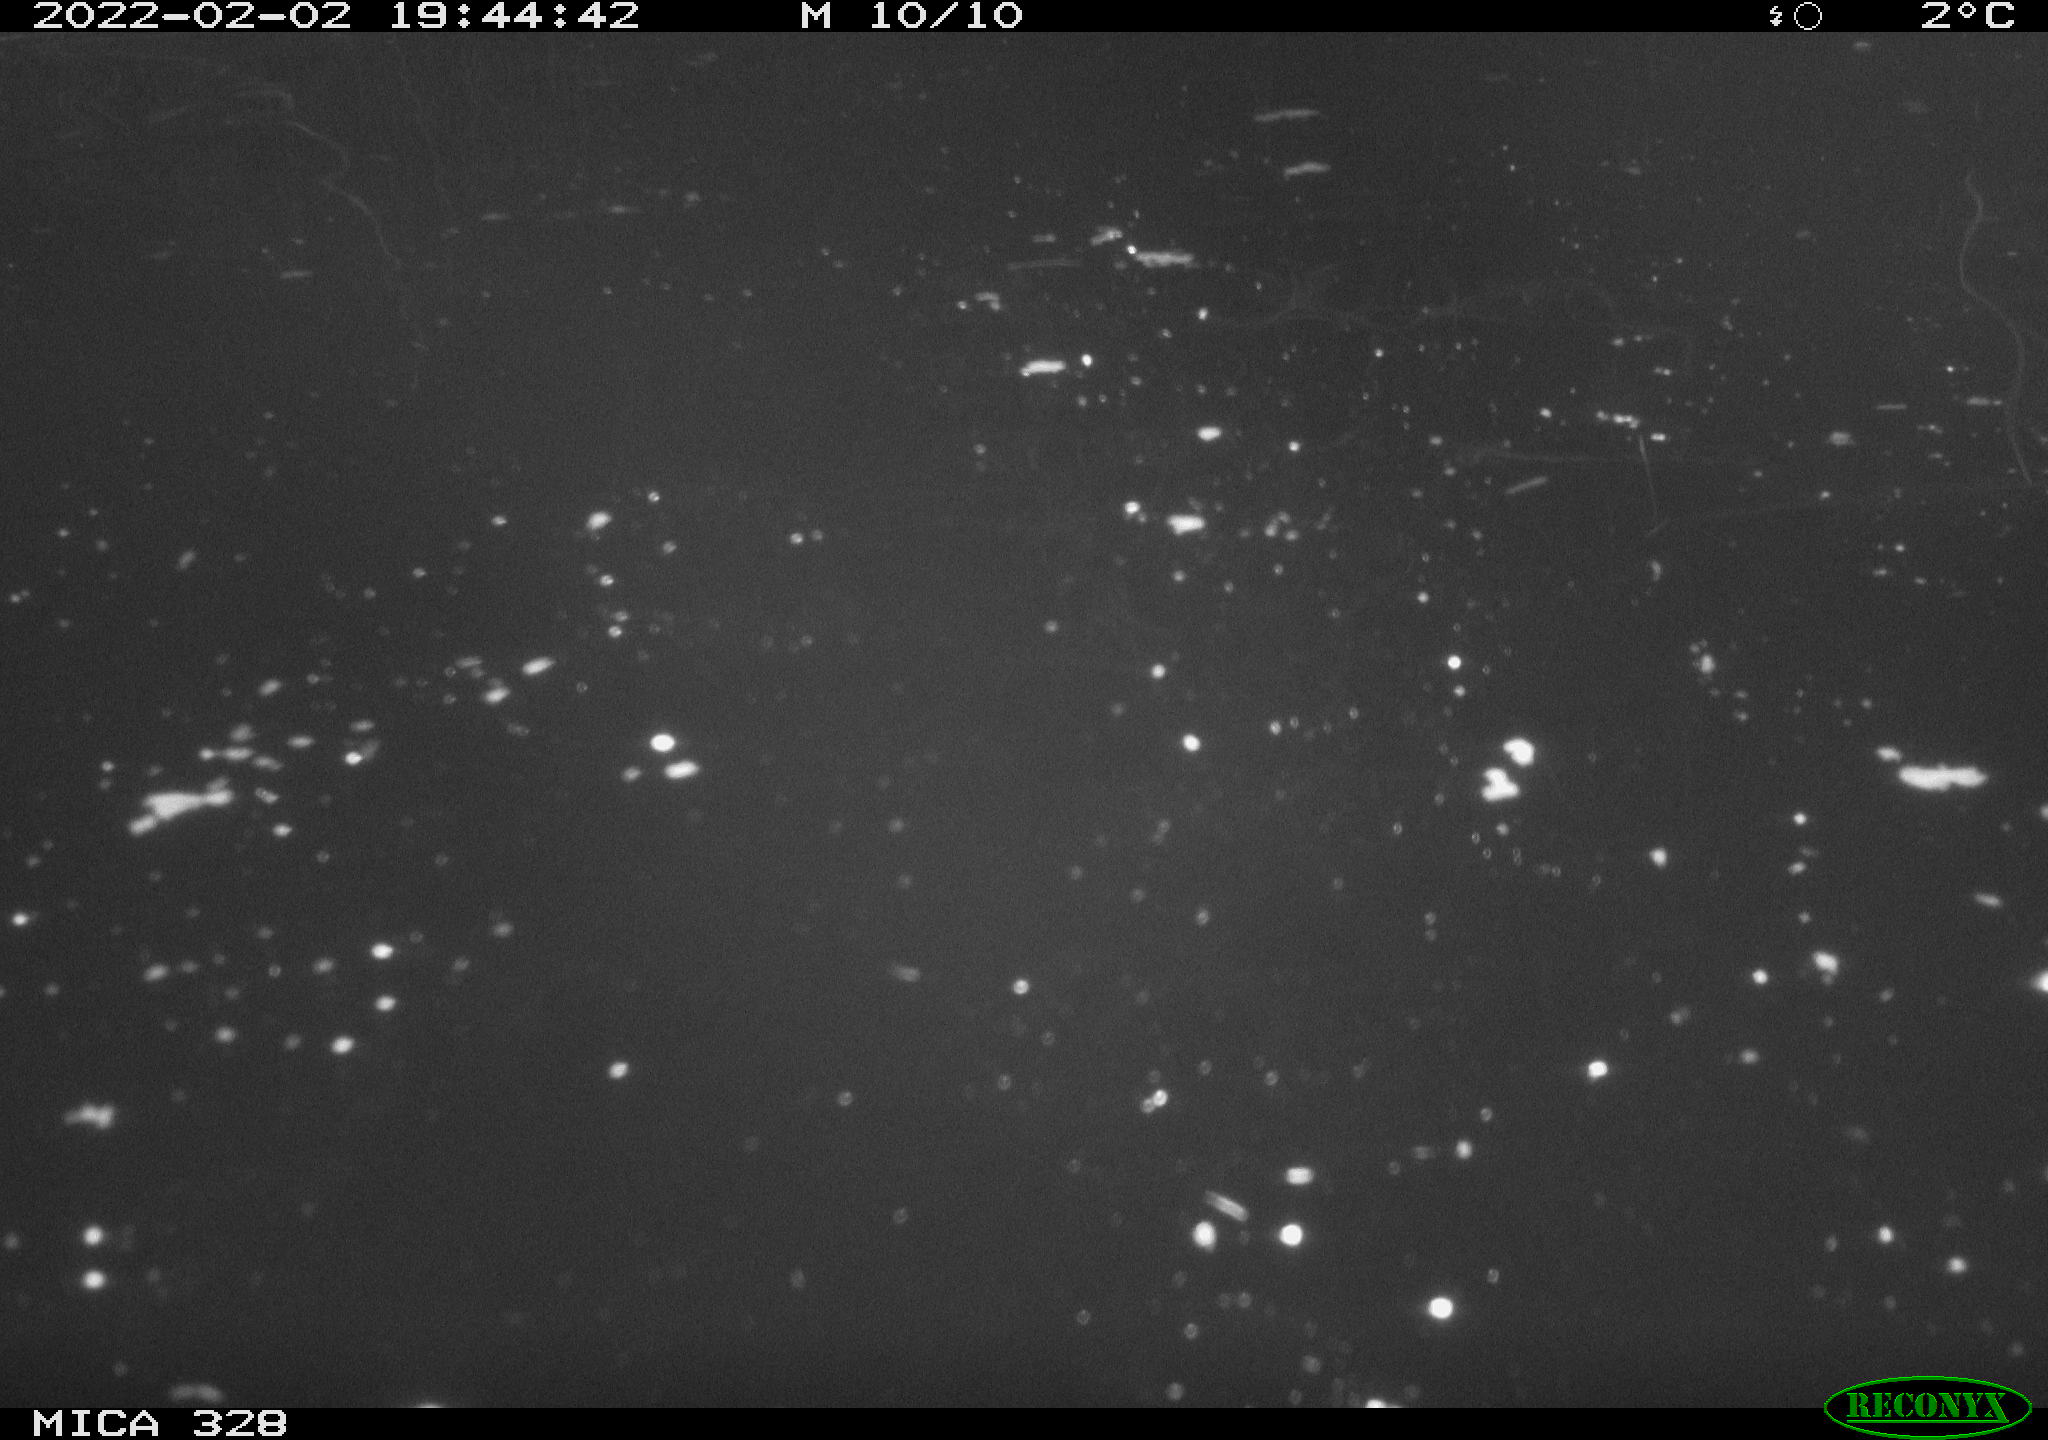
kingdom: Animalia
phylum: Chordata
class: Mammalia
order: Rodentia
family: Cricetidae
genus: Ondatra
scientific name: Ondatra zibethicus
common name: Muskrat
